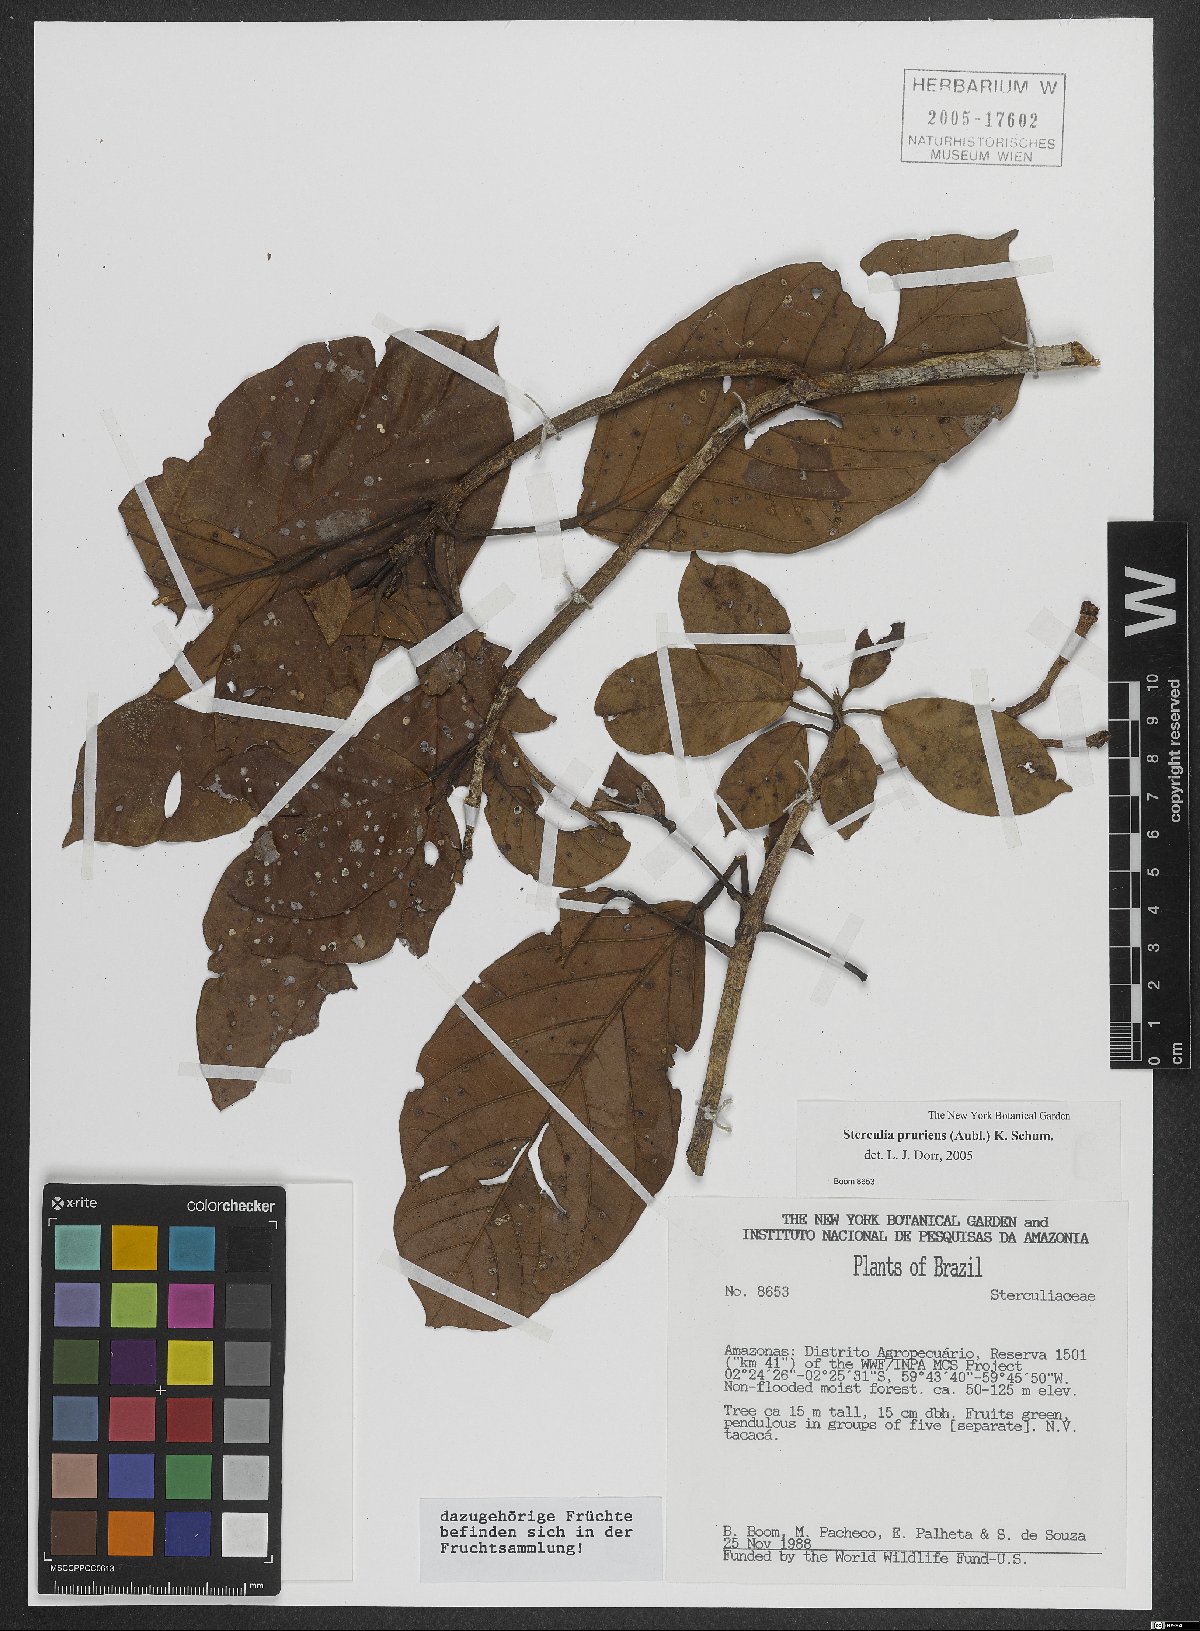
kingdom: Plantae
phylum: Tracheophyta
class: Magnoliopsida
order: Malvales
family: Malvaceae
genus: Sterculia
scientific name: Sterculia pruriens
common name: Grand mahot
